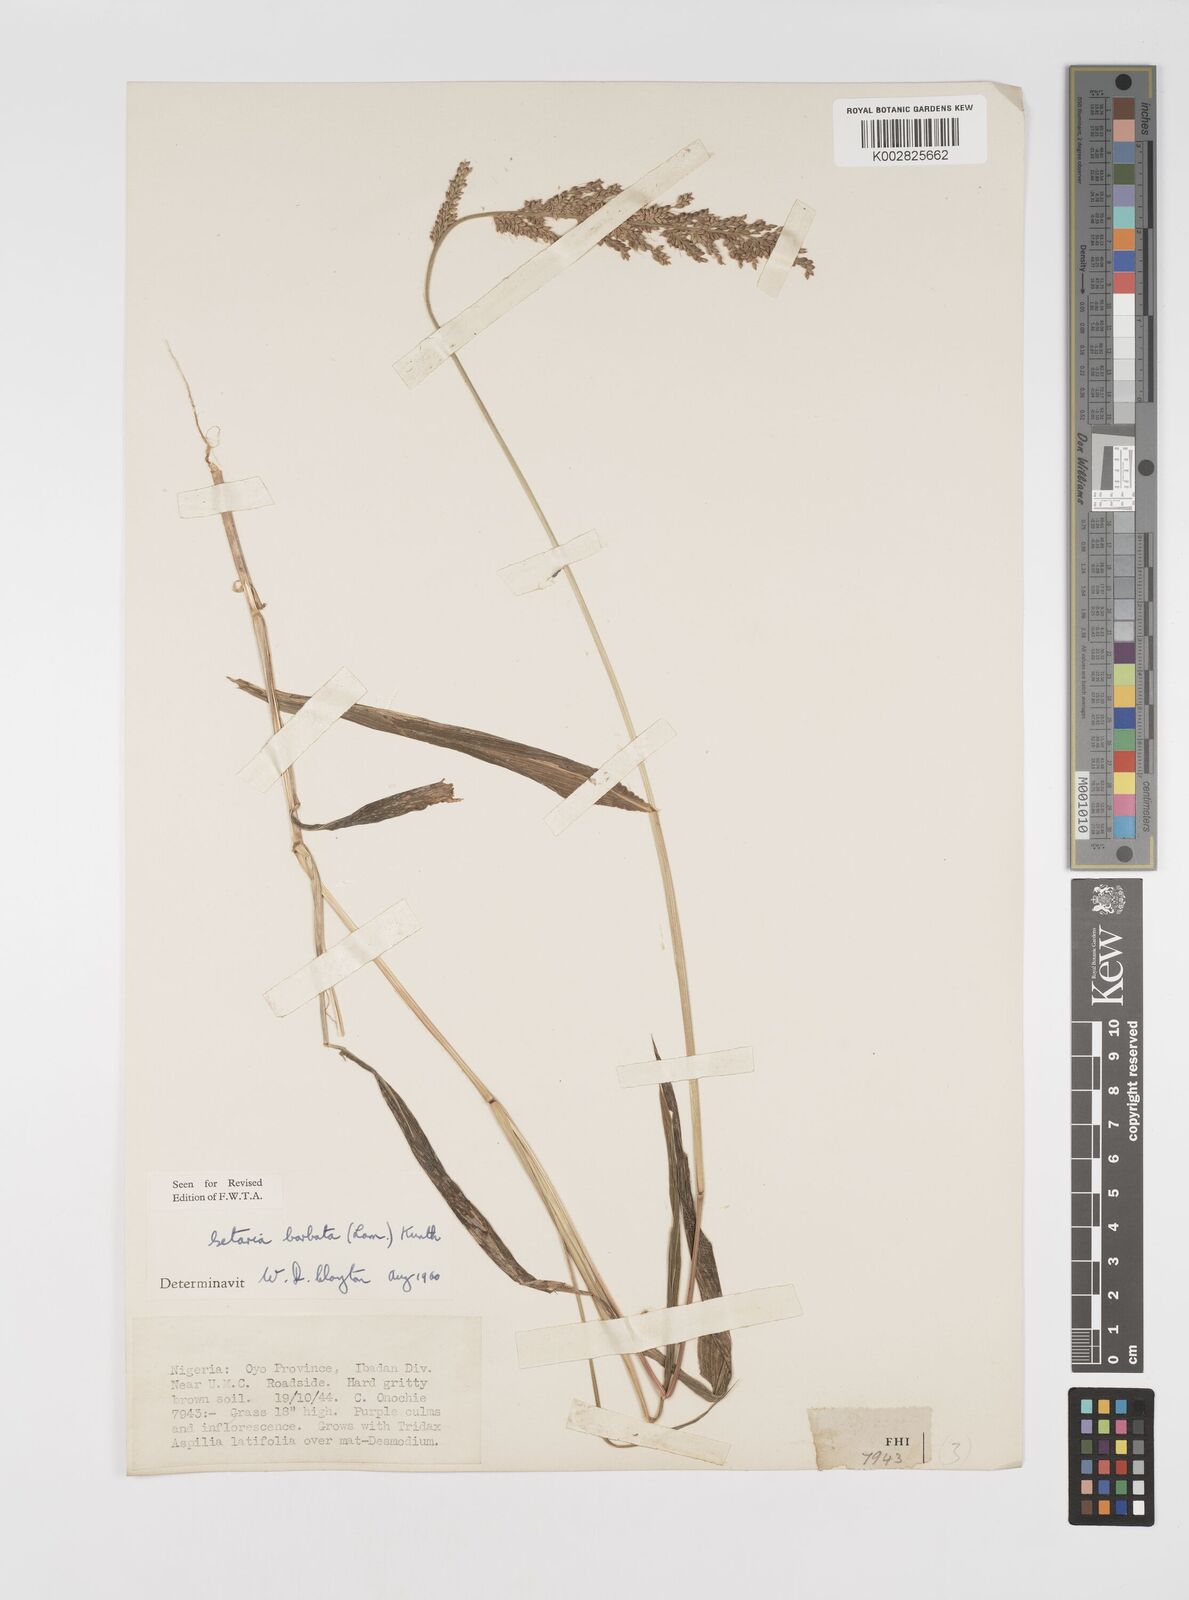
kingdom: Plantae
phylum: Tracheophyta
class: Liliopsida
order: Poales
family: Poaceae
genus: Setaria
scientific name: Setaria barbata
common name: East indian bristlegrass
